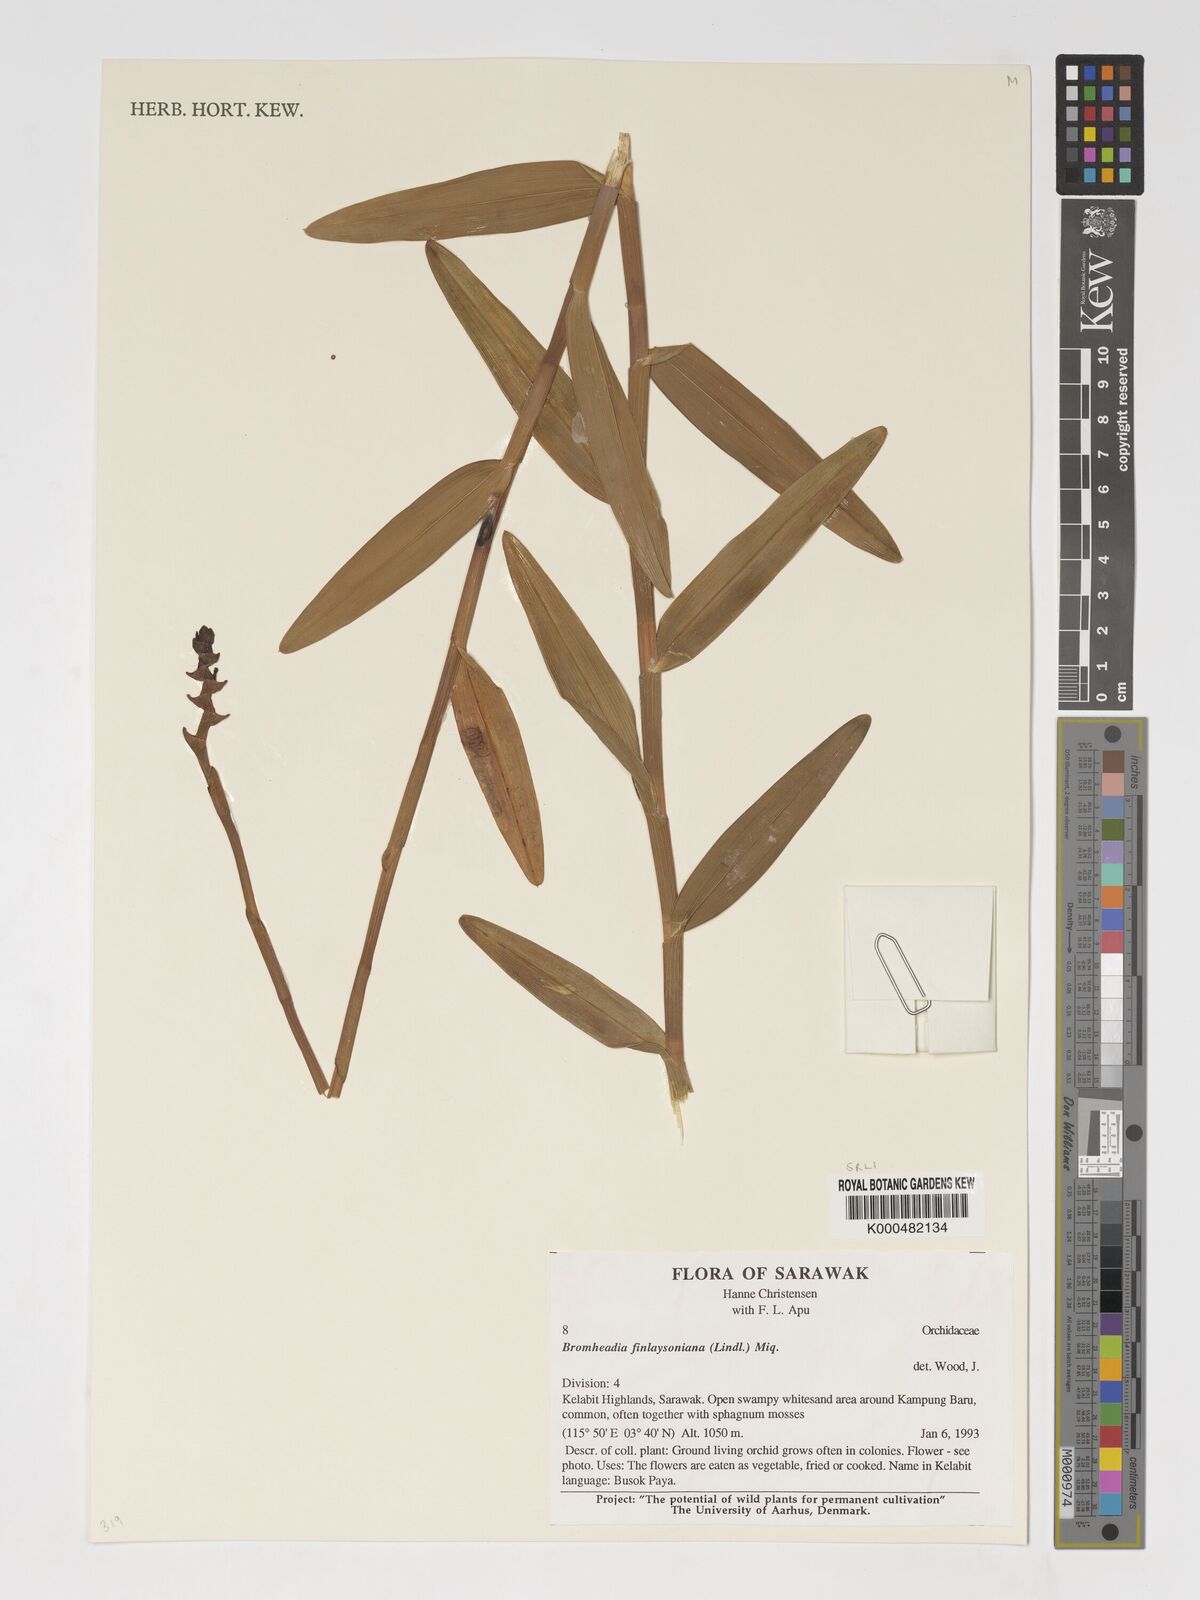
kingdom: Plantae
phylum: Tracheophyta
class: Liliopsida
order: Asparagales
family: Orchidaceae
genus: Bromheadia
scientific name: Bromheadia finlaysoniana
